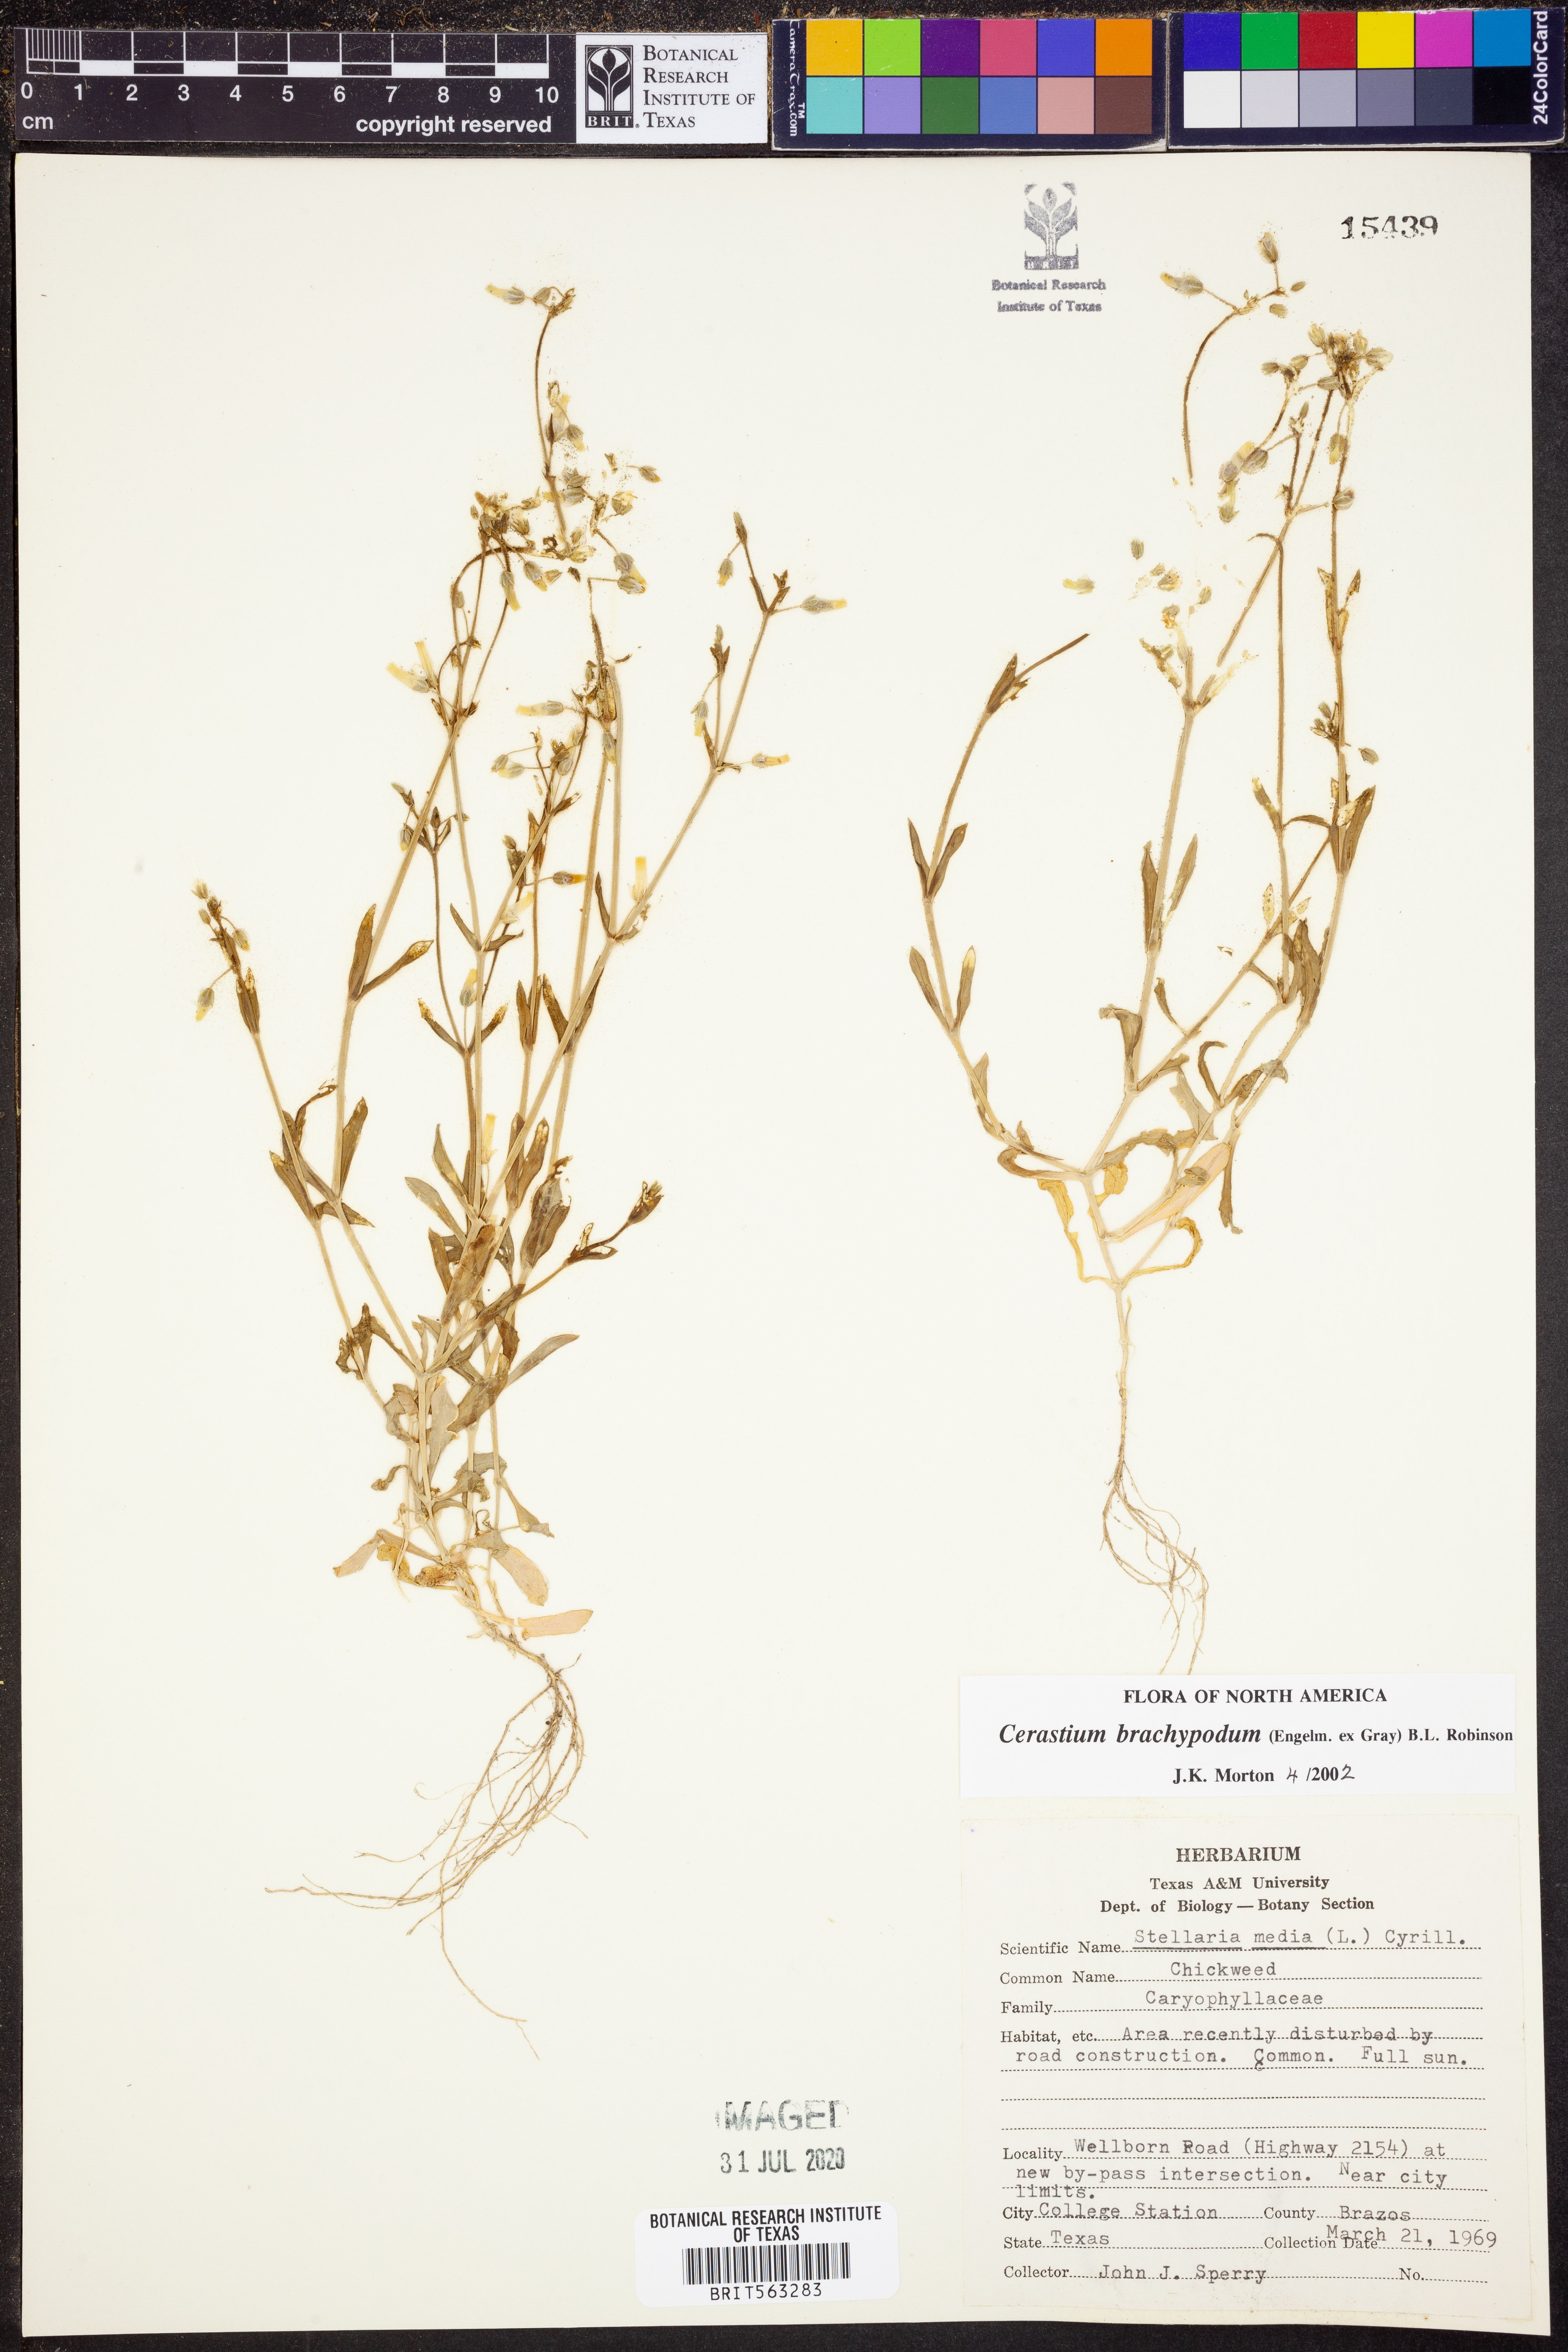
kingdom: Plantae
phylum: Tracheophyta
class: Magnoliopsida
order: Caryophyllales
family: Caryophyllaceae
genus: Cerastium
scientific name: Cerastium brachypodum
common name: Short-pedicelled nodding chickweed
